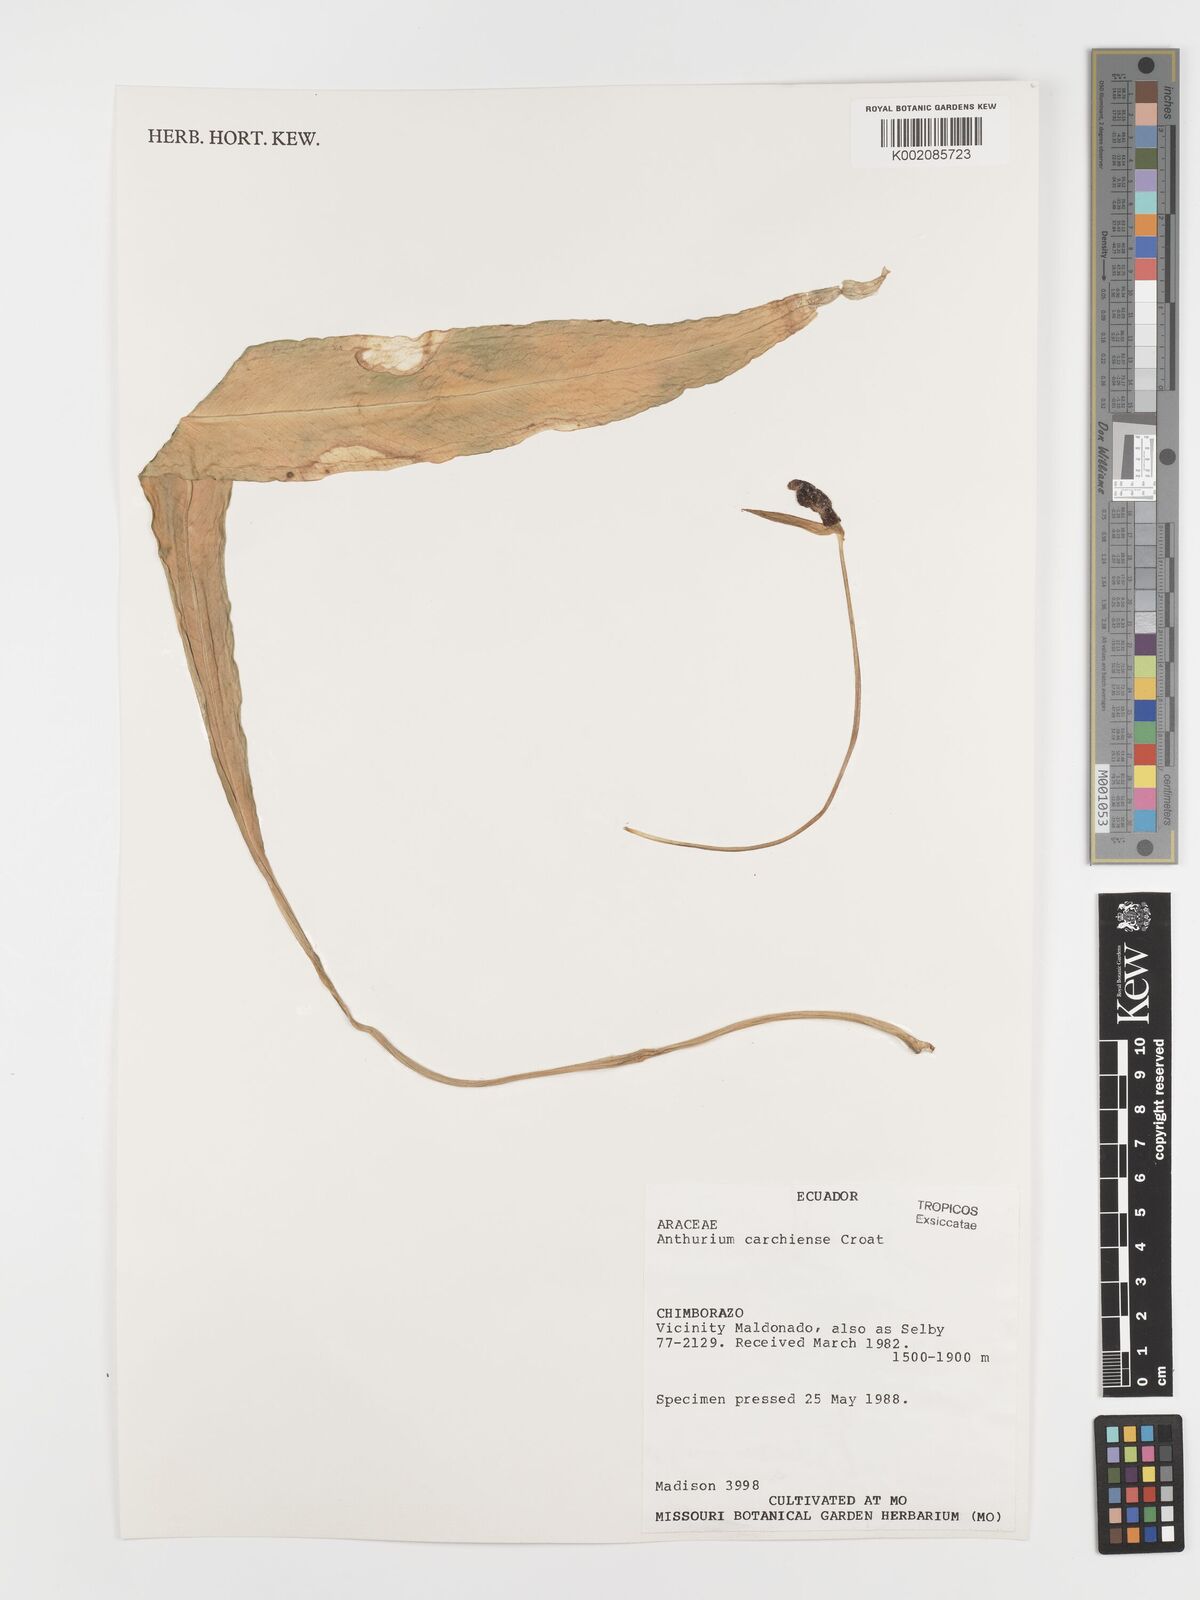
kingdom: Plantae
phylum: Tracheophyta
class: Liliopsida
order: Alismatales
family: Araceae
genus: Anthurium
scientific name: Anthurium carchiense
